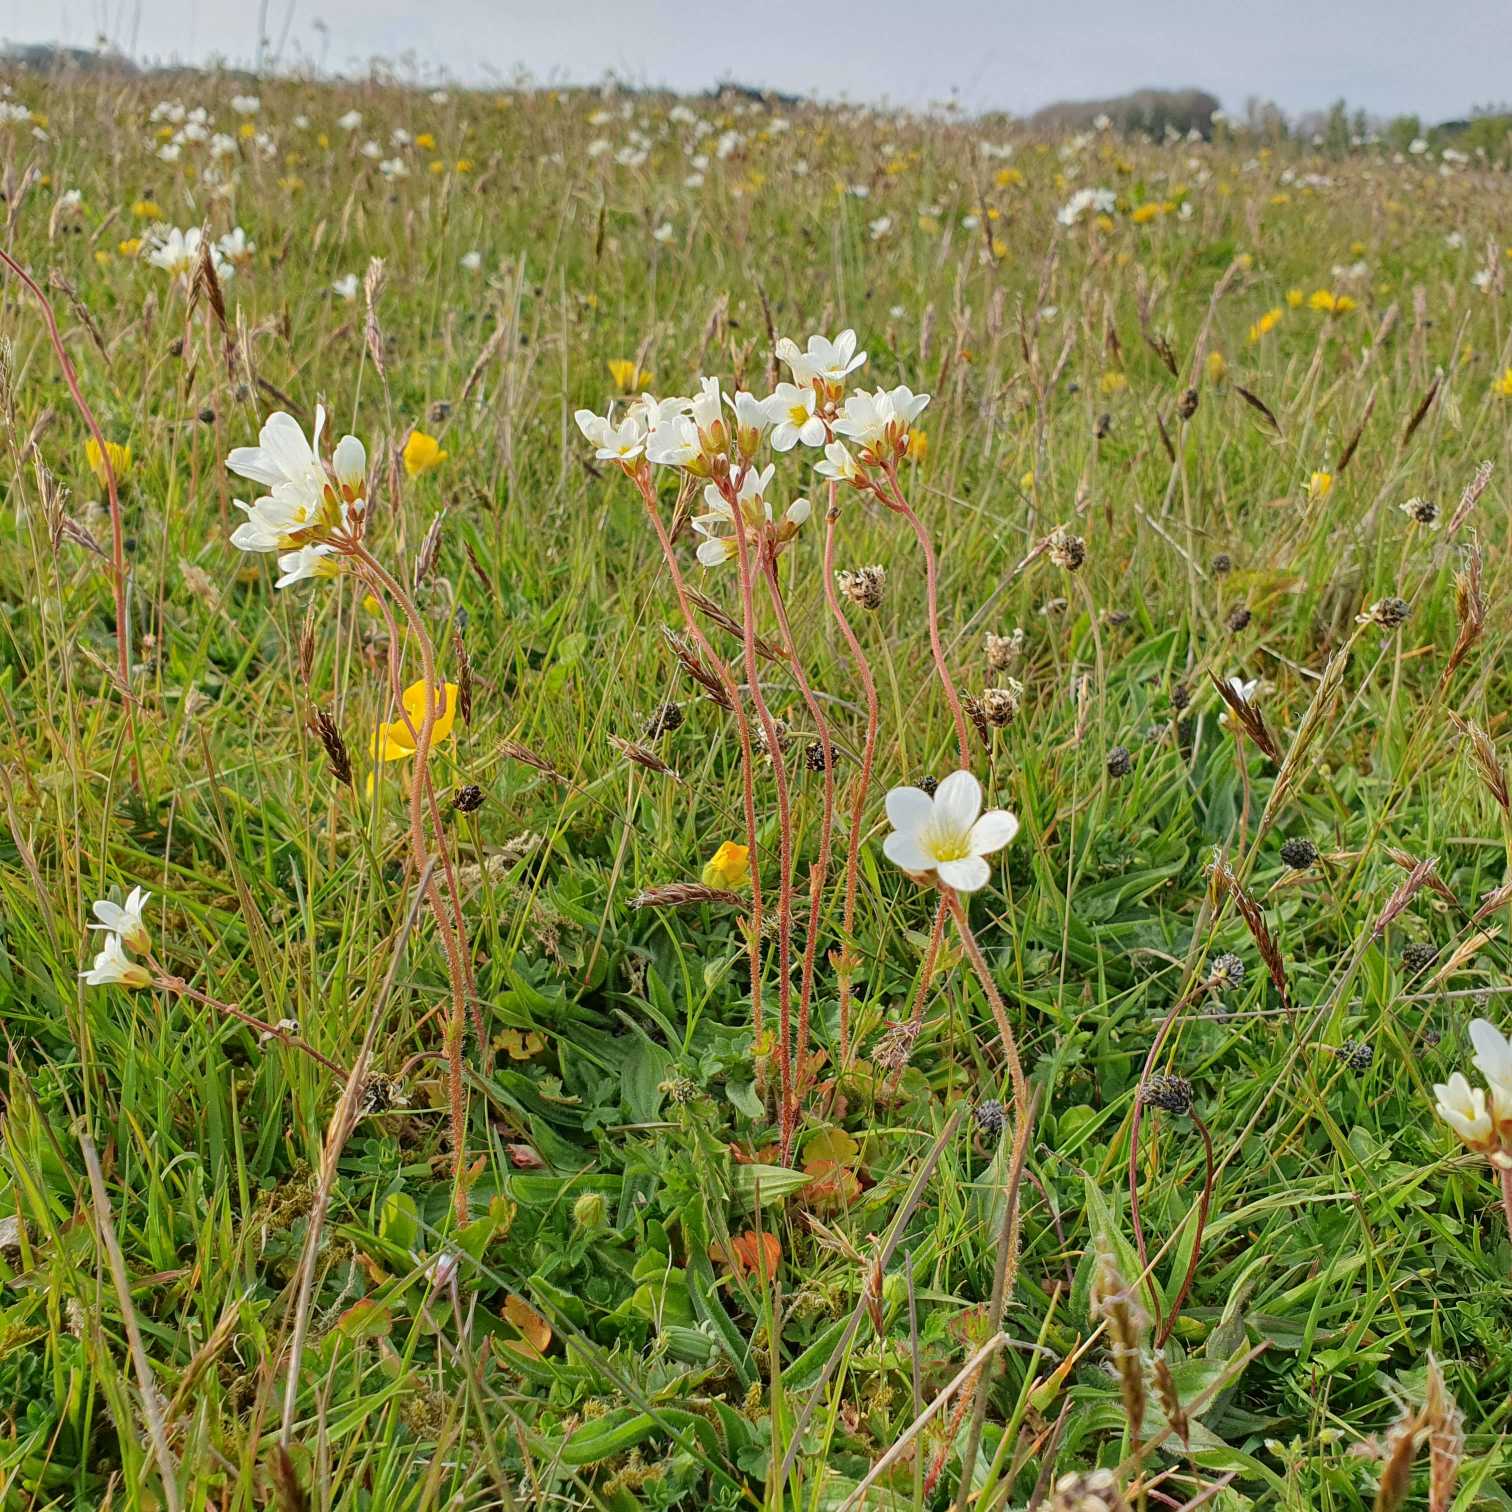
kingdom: Plantae
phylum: Tracheophyta
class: Magnoliopsida
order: Saxifragales
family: Saxifragaceae
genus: Saxifraga
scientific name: Saxifraga granulata
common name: Kornet stenbræk
